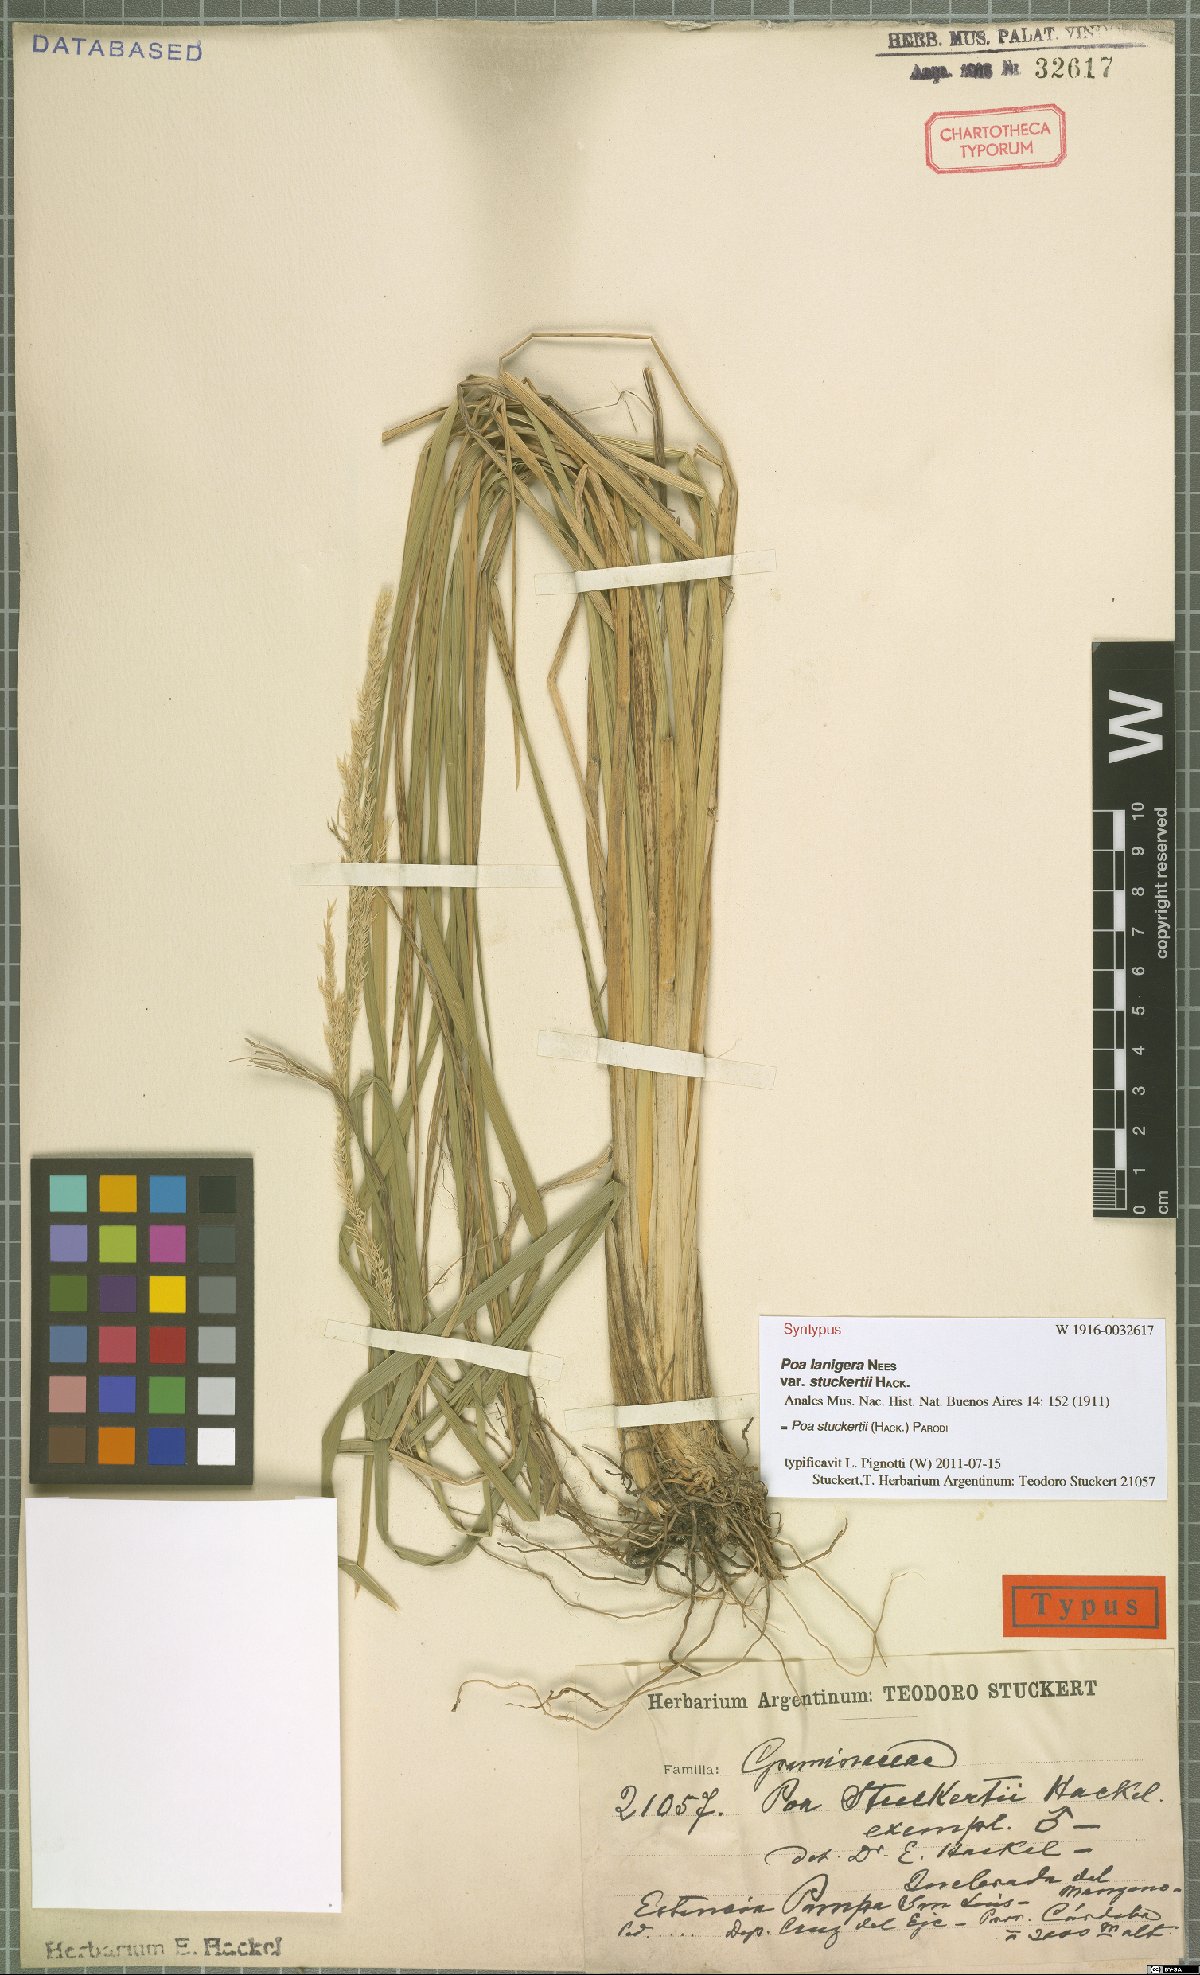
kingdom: Plantae
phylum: Tracheophyta
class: Liliopsida
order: Poales
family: Poaceae
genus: Poa
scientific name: Poa stuckertii
